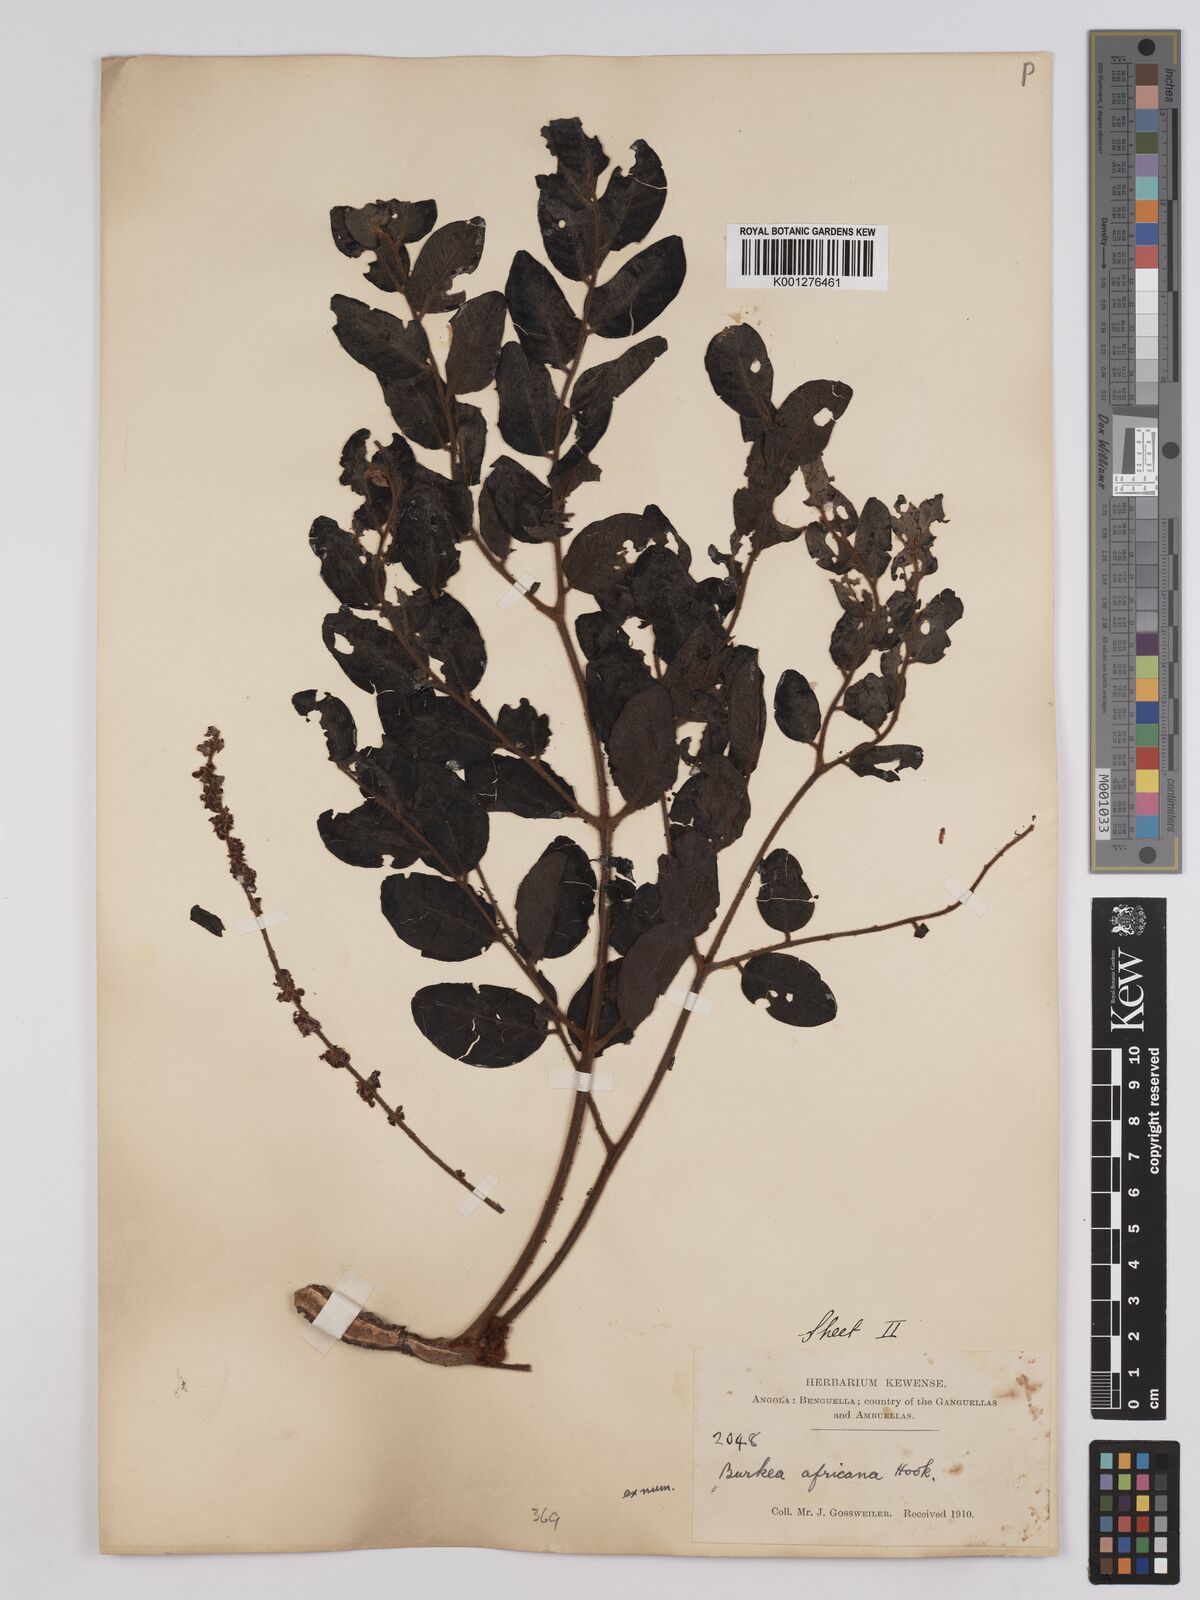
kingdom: Plantae
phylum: Tracheophyta
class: Magnoliopsida
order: Fabales
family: Fabaceae
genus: Burkea
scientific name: Burkea africana
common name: Mkalati tree
